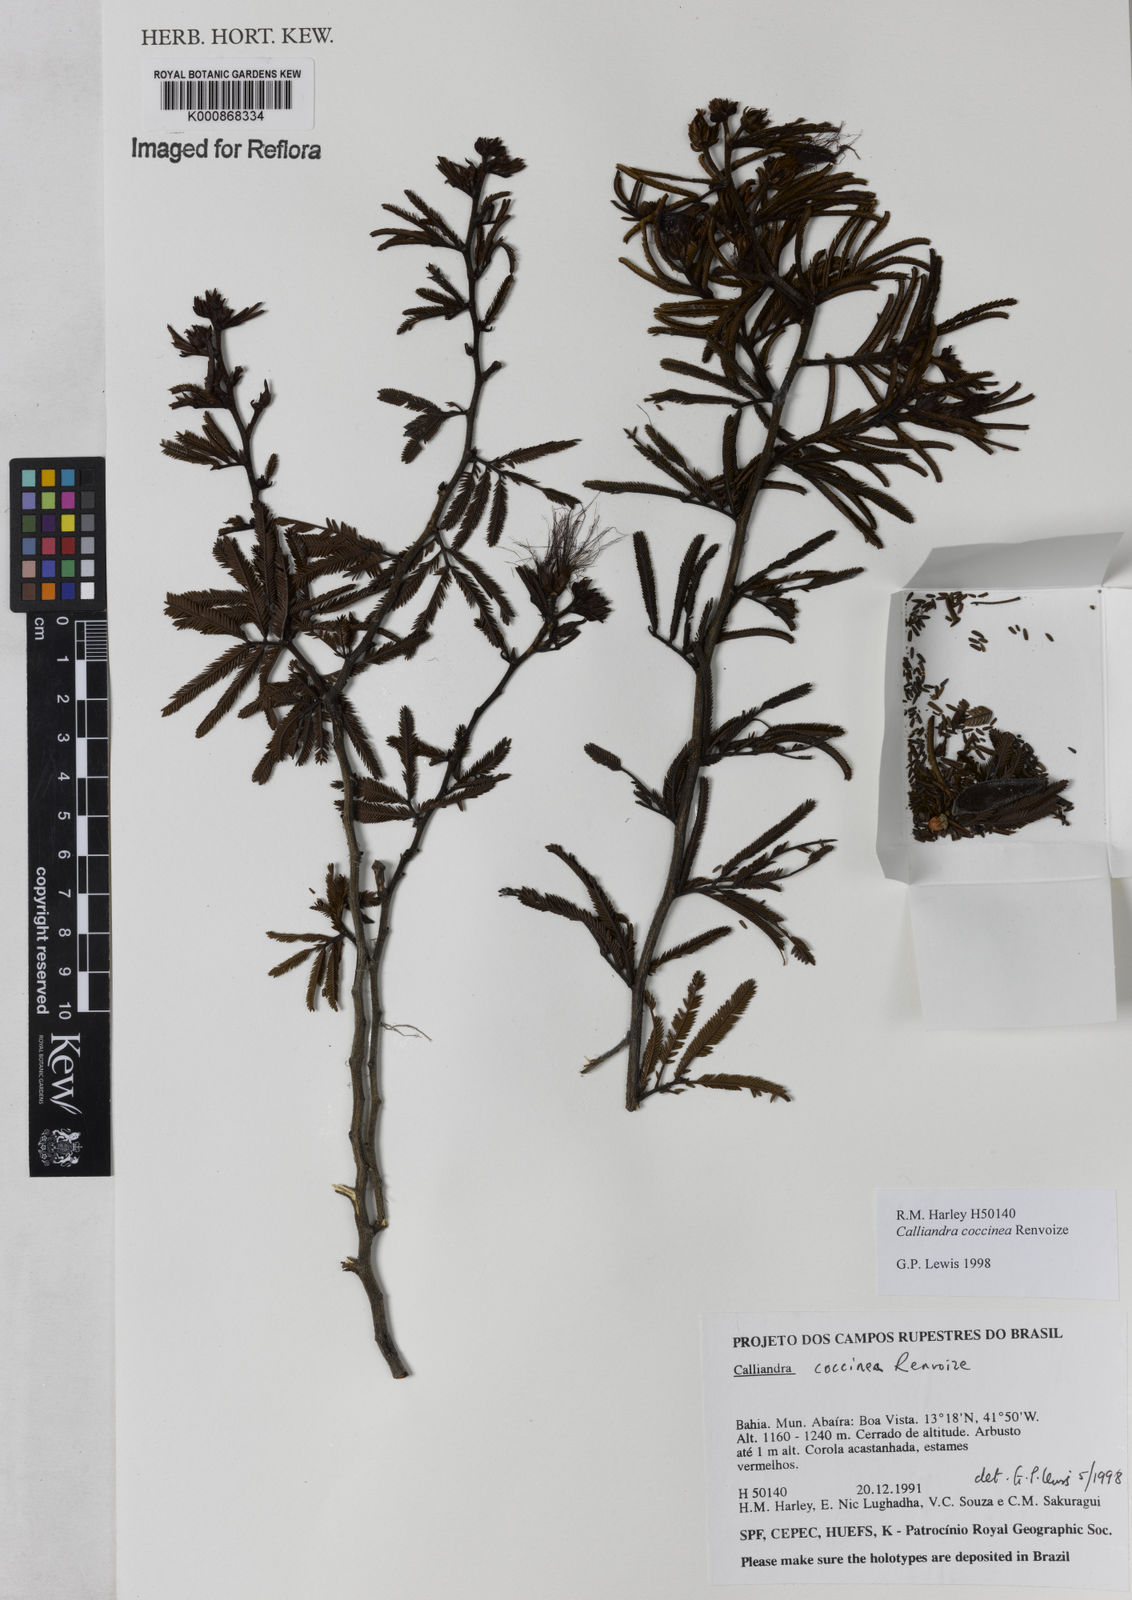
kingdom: Plantae
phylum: Tracheophyta
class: Magnoliopsida
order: Fabales
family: Fabaceae
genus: Calliandra
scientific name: Calliandra coccinea
